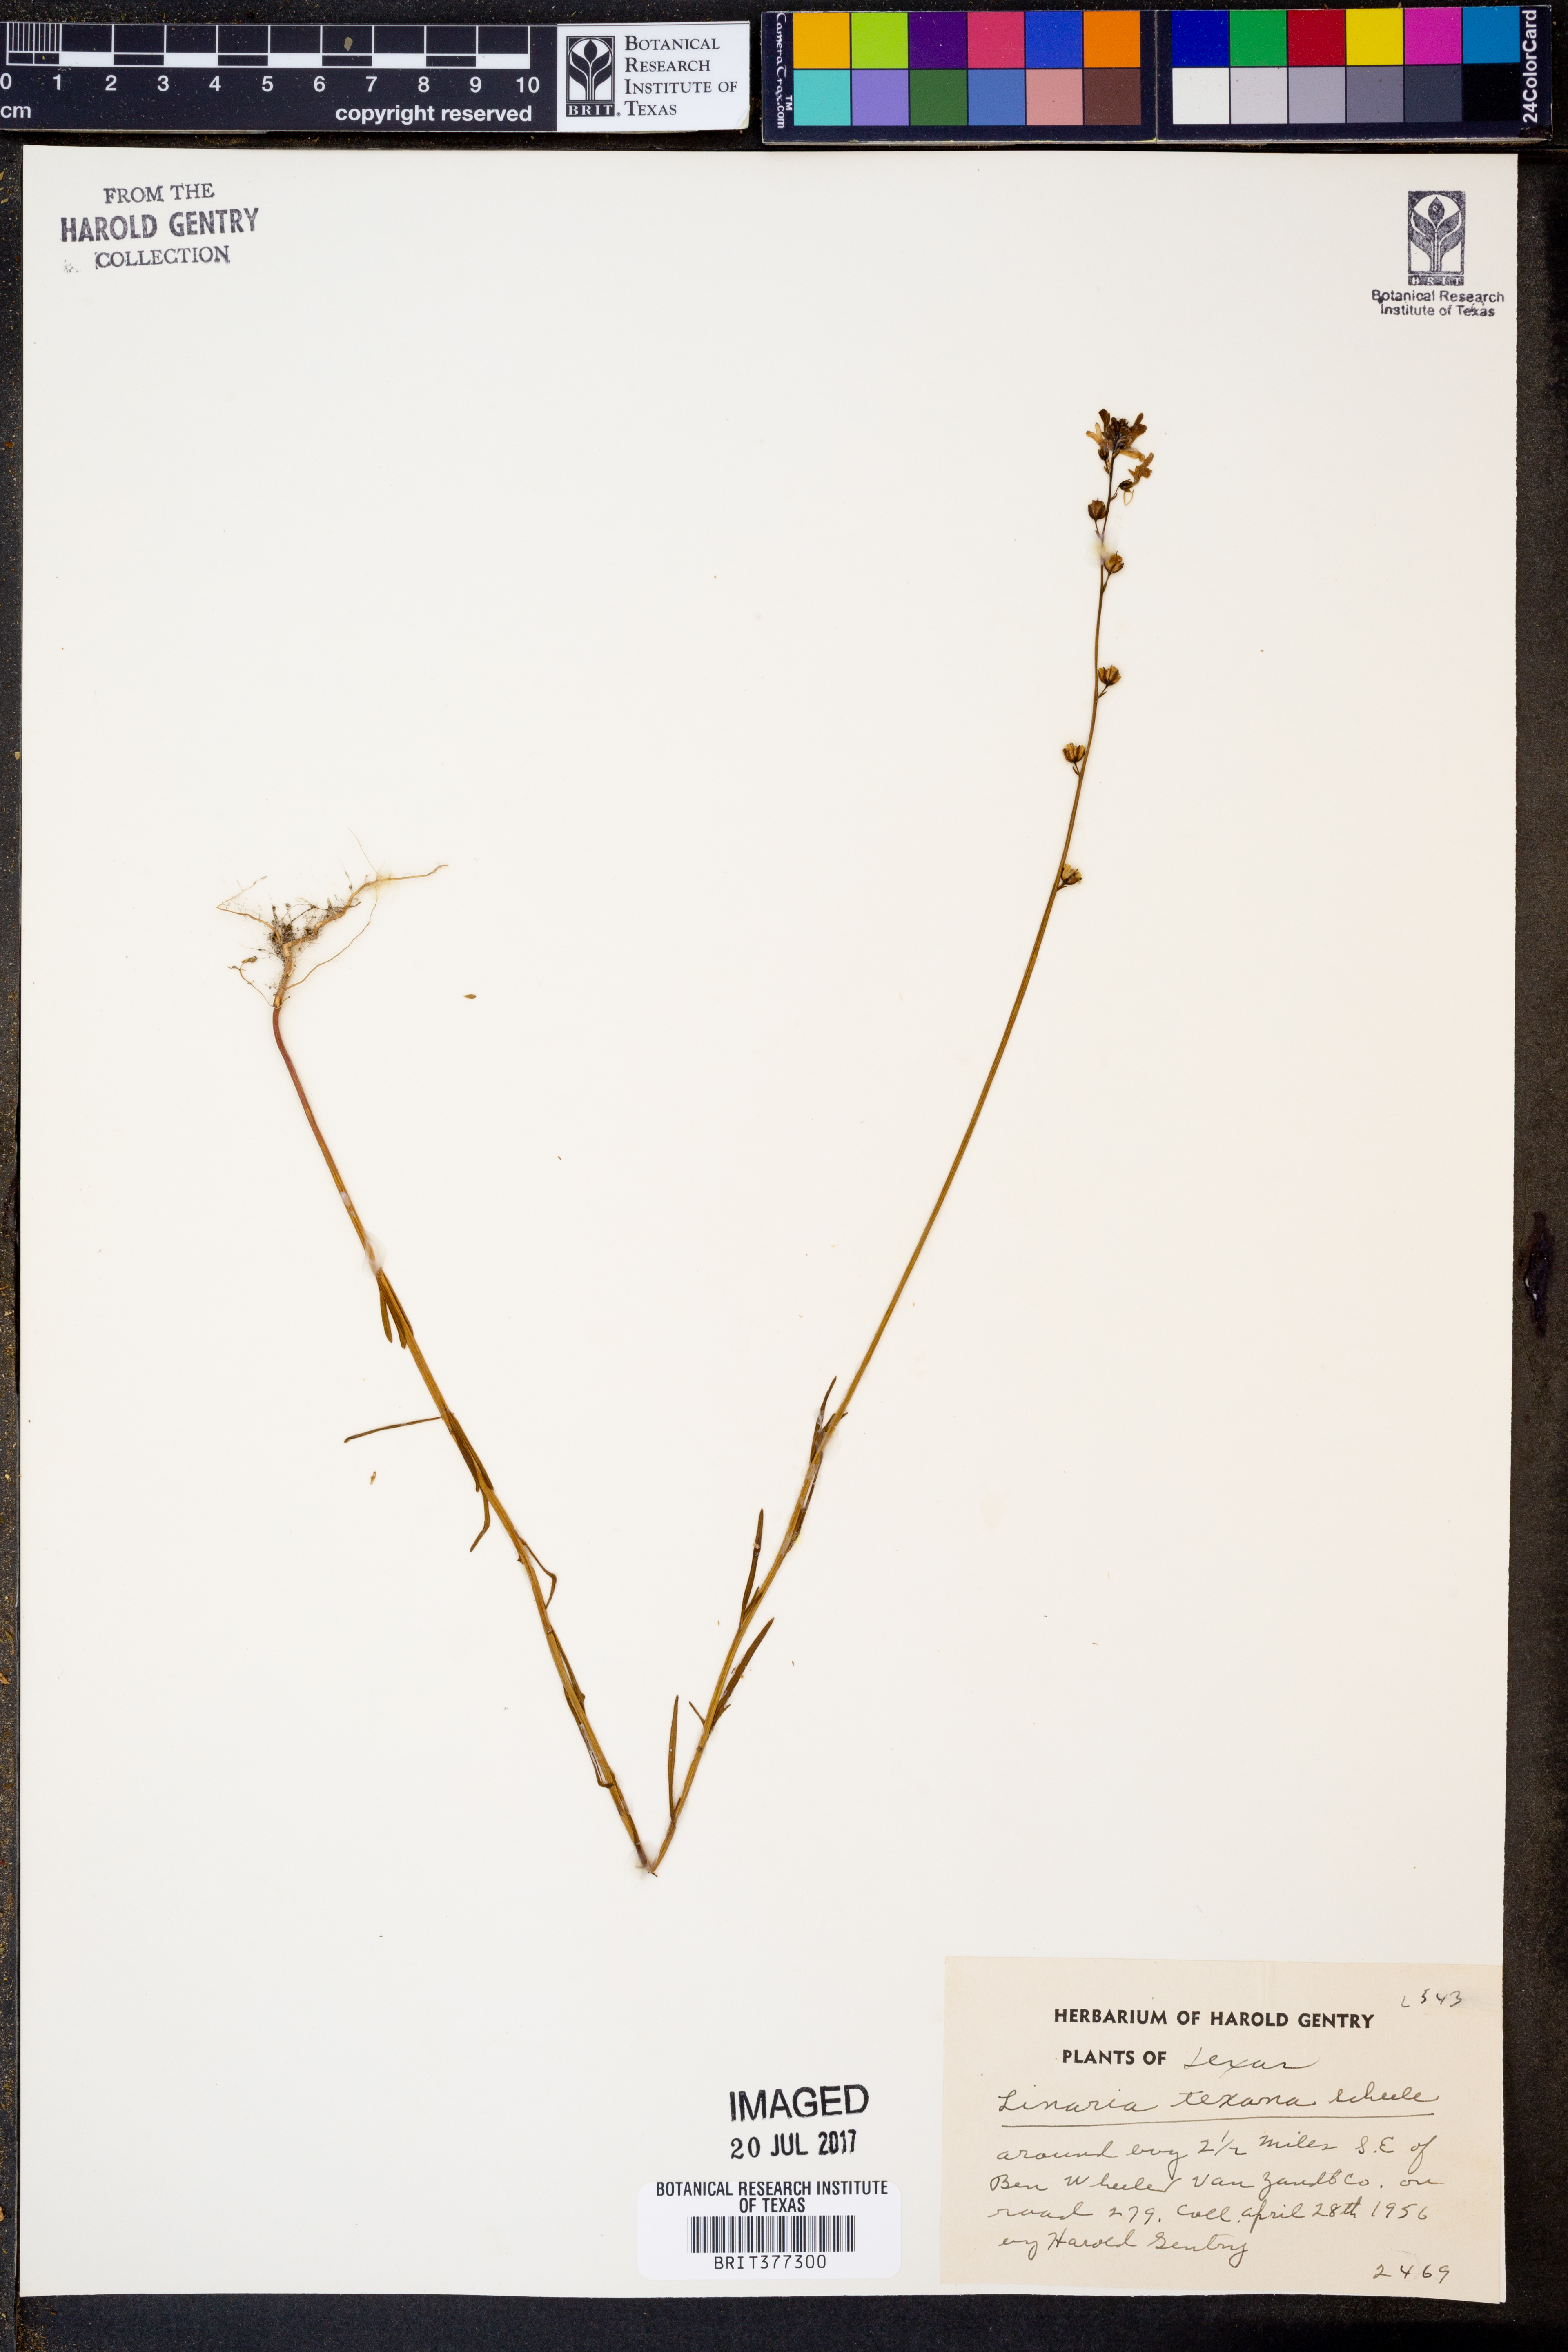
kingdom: Plantae
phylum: Tracheophyta
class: Magnoliopsida
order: Lamiales
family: Plantaginaceae
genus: Nuttallanthus
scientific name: Nuttallanthus texanus
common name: Texas toadflax
